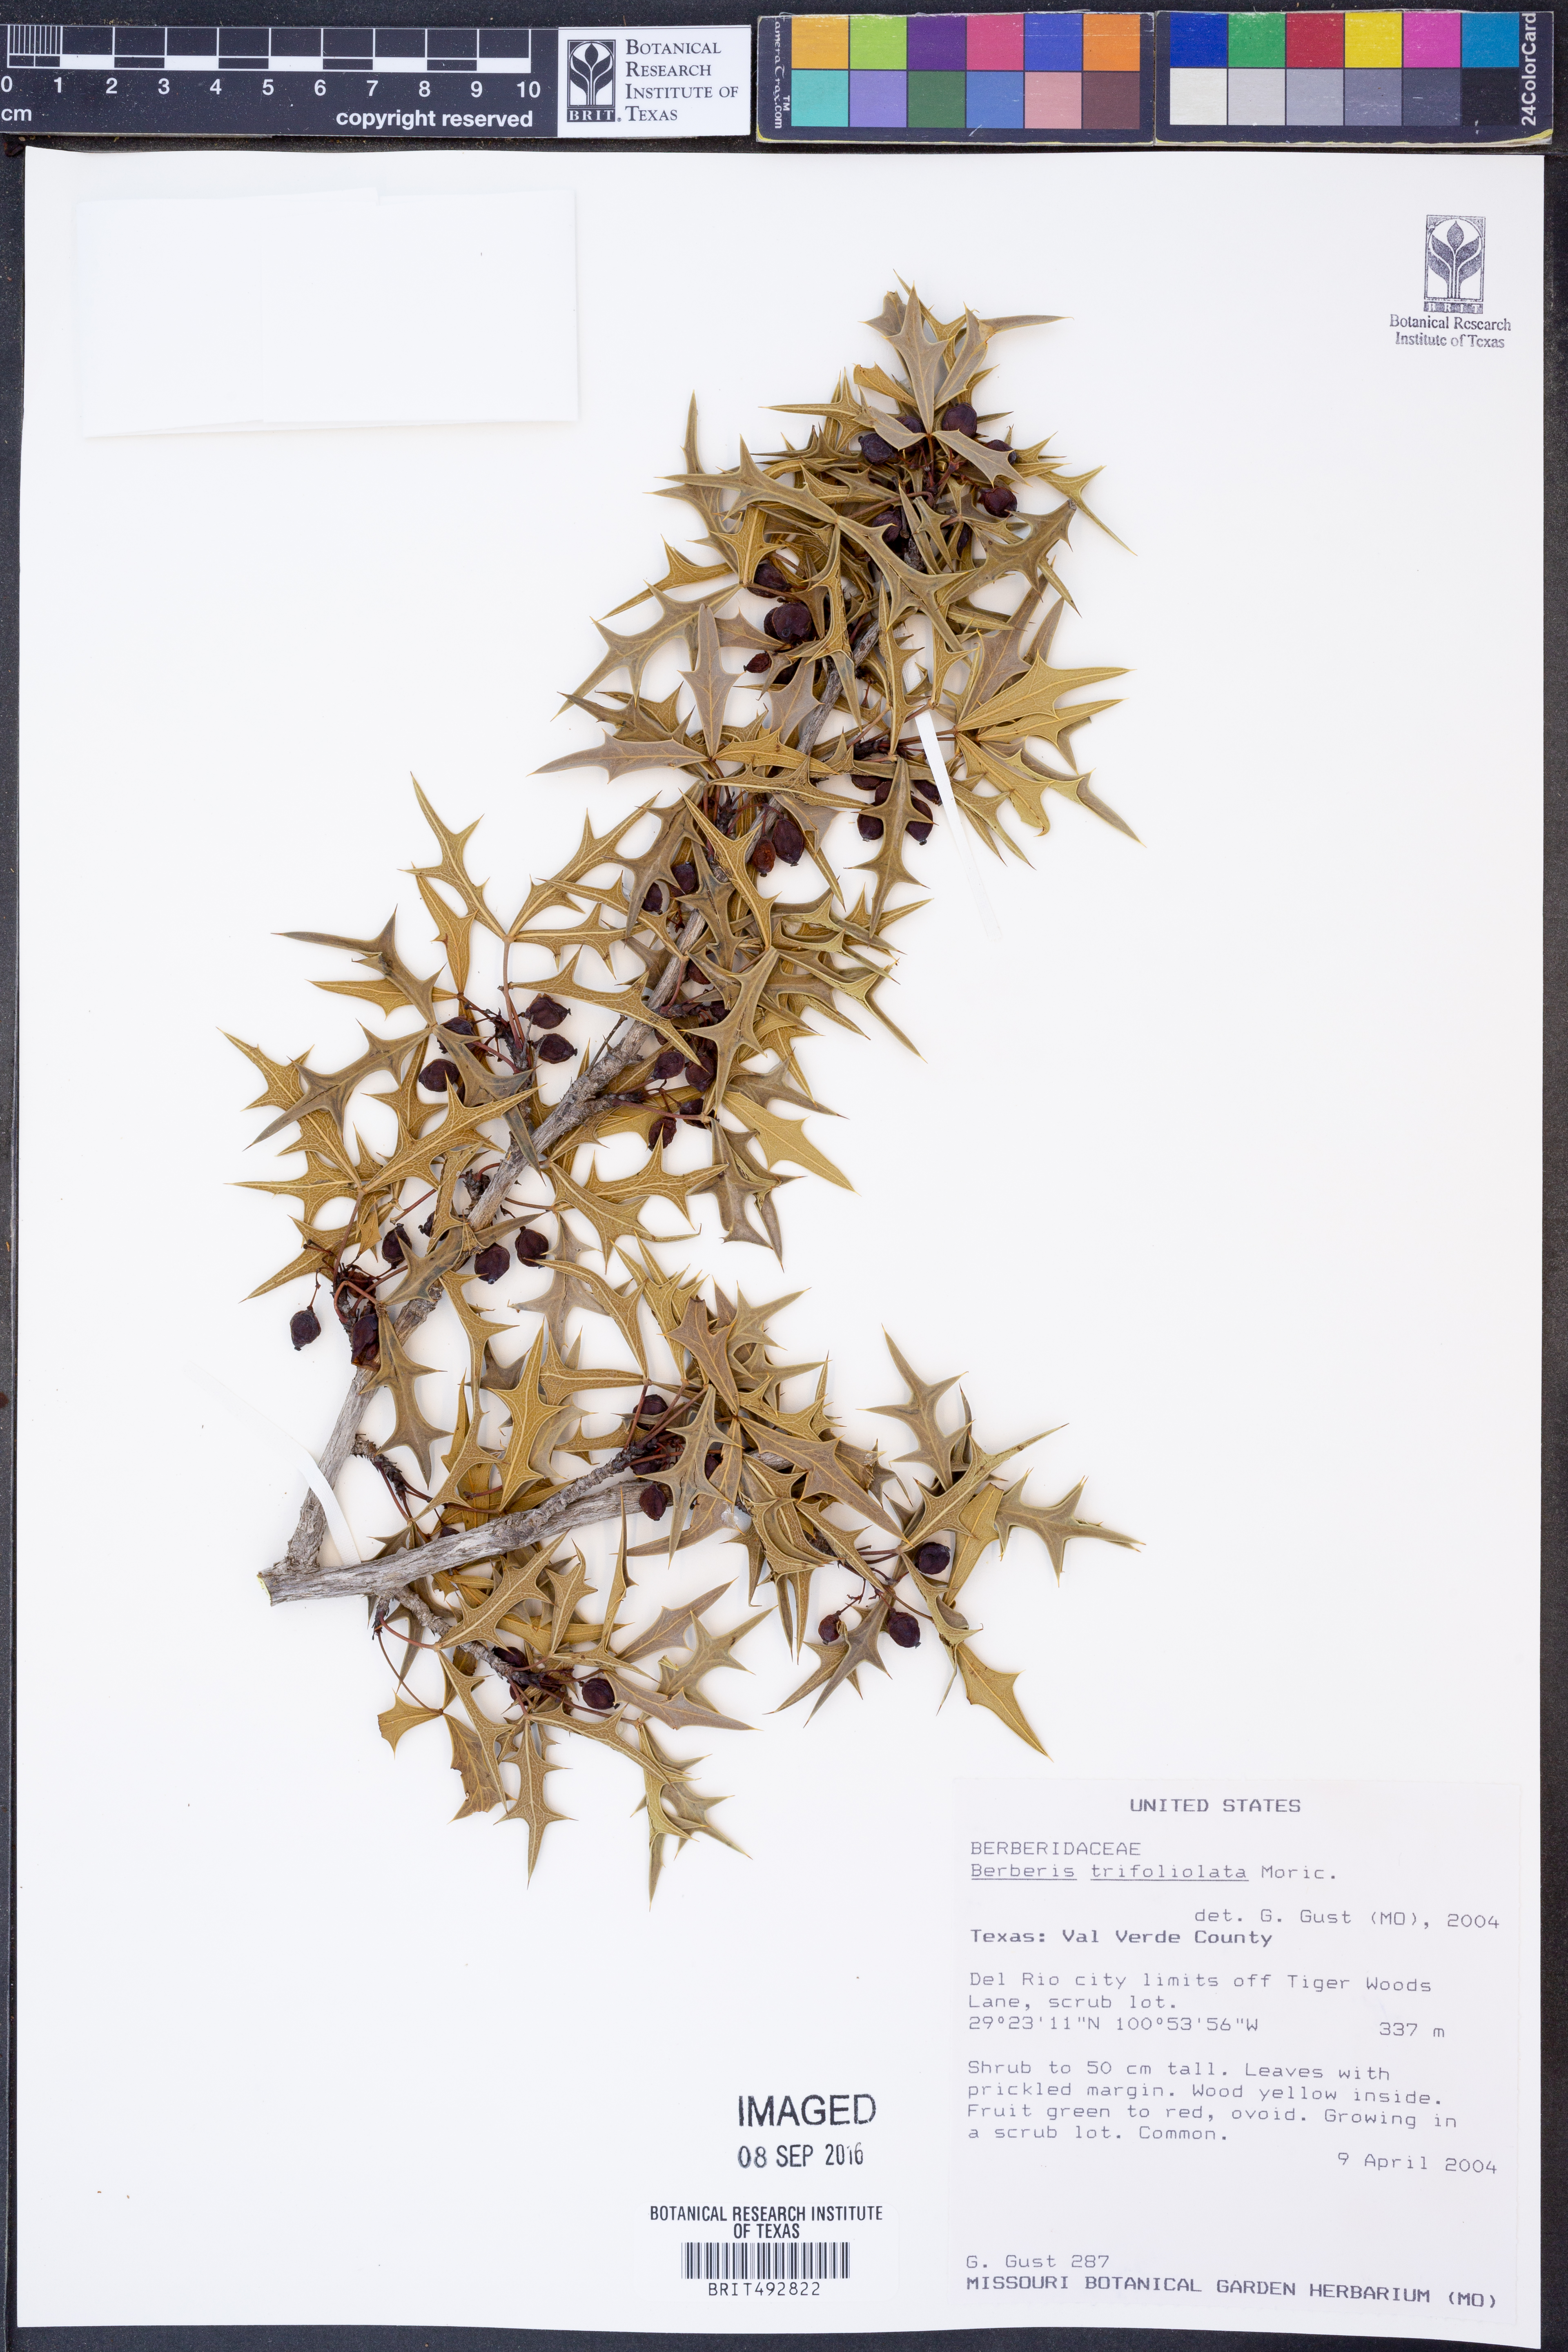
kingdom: Plantae
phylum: Tracheophyta
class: Magnoliopsida
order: Ranunculales
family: Berberidaceae
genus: Alloberberis
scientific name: Alloberberis trifoliolata
